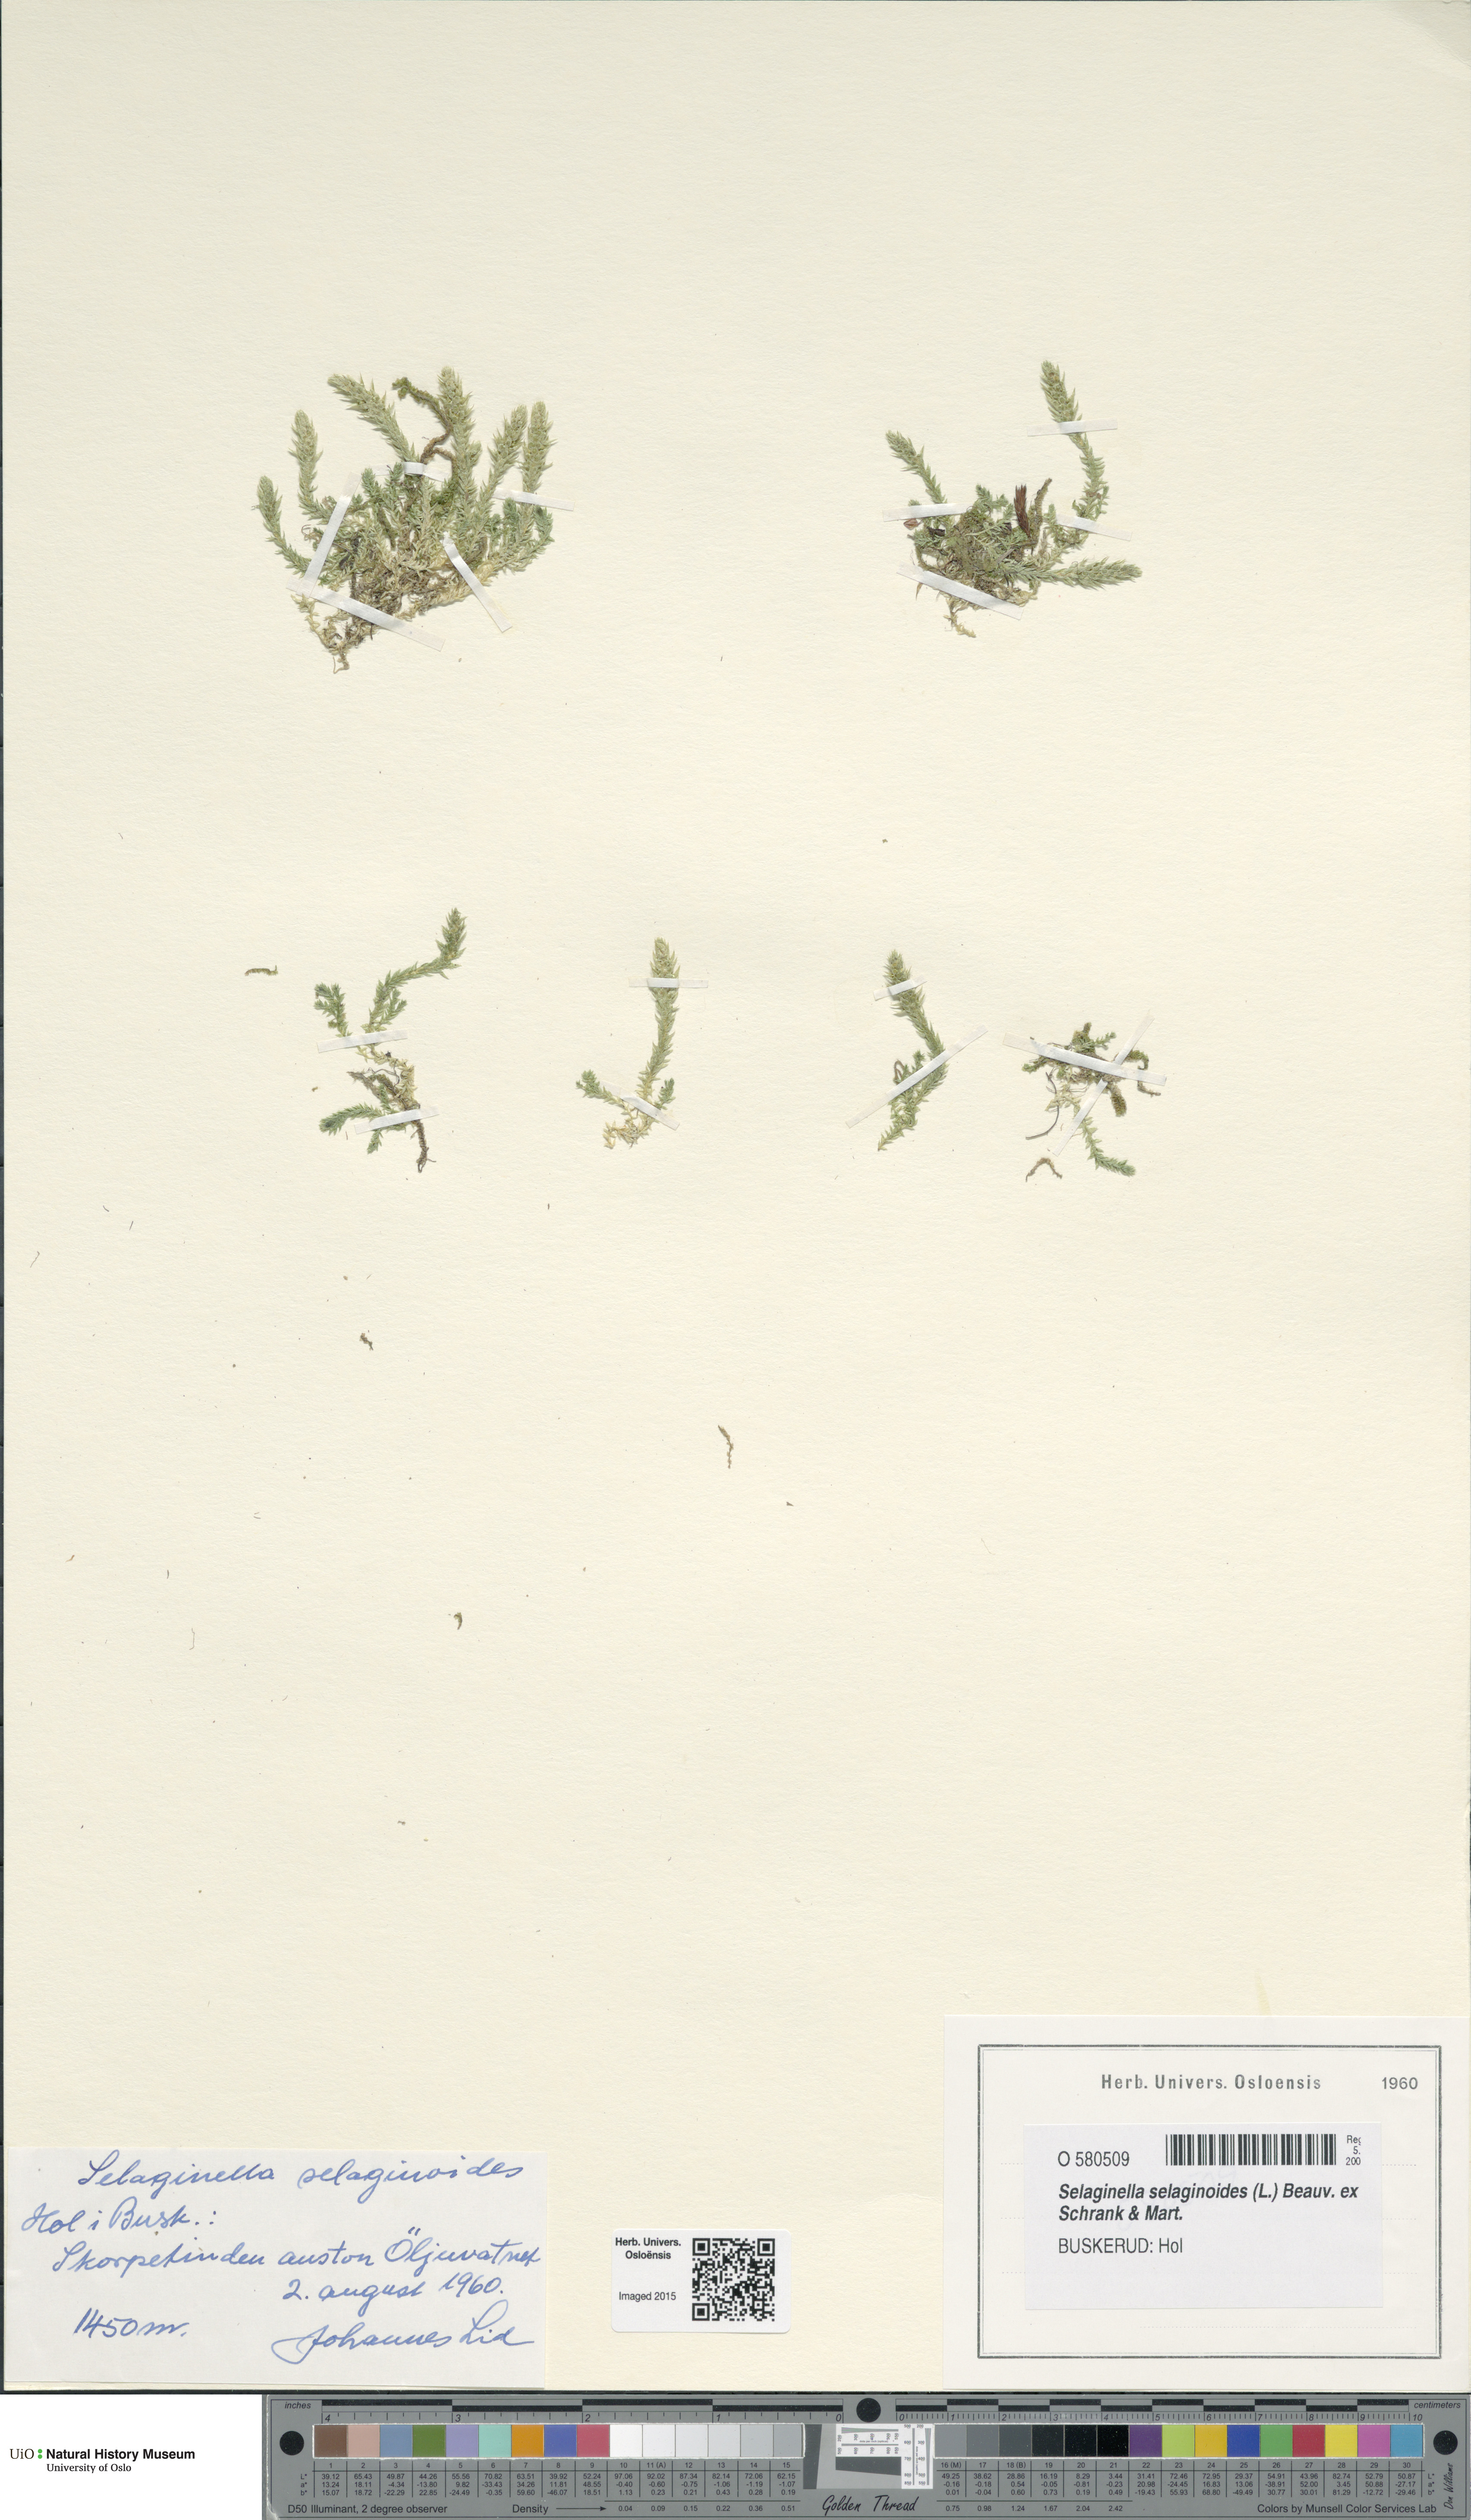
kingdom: Plantae
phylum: Tracheophyta
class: Lycopodiopsida
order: Selaginellales
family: Selaginellaceae
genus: Selaginella
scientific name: Selaginella selaginoides
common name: Prickly mountain-moss
